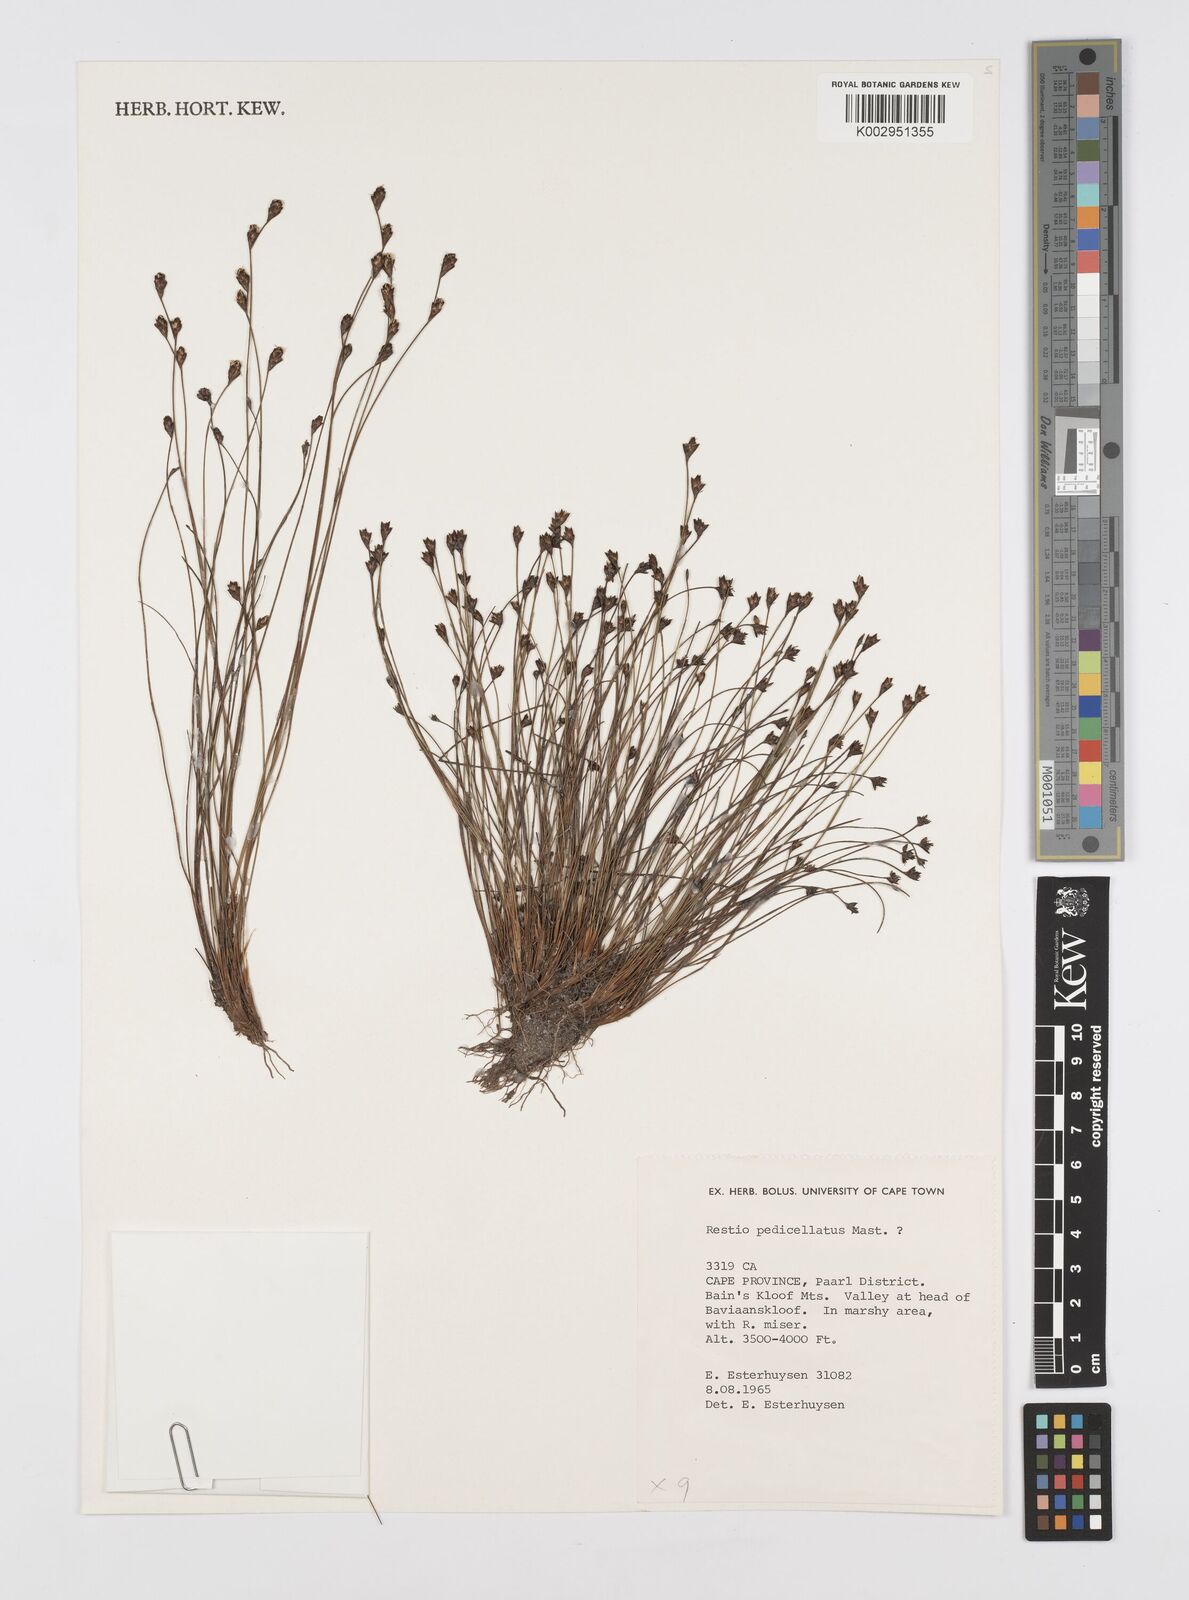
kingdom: Plantae
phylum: Tracheophyta
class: Liliopsida
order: Poales
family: Restionaceae
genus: Restio
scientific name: Restio pedicellatus
